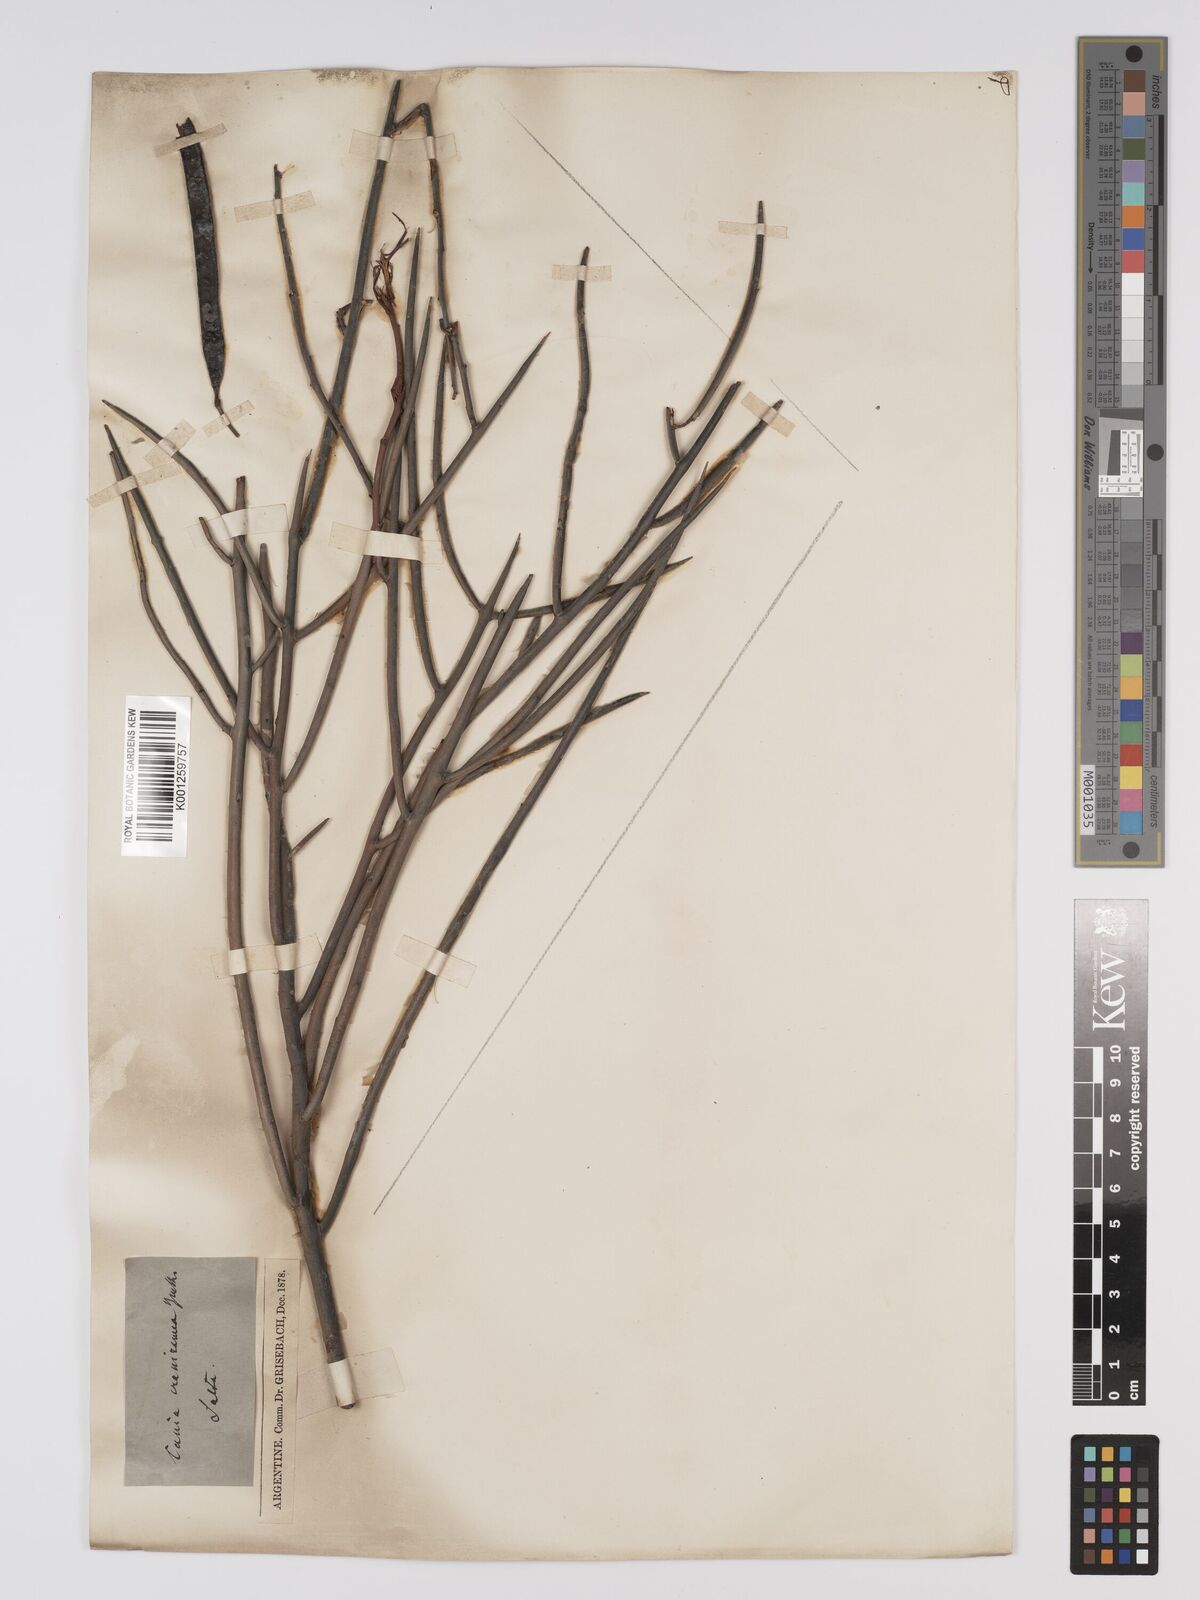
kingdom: Plantae
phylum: Tracheophyta
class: Magnoliopsida
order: Fabales
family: Fabaceae
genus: Senna
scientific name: Senna crassiramea
